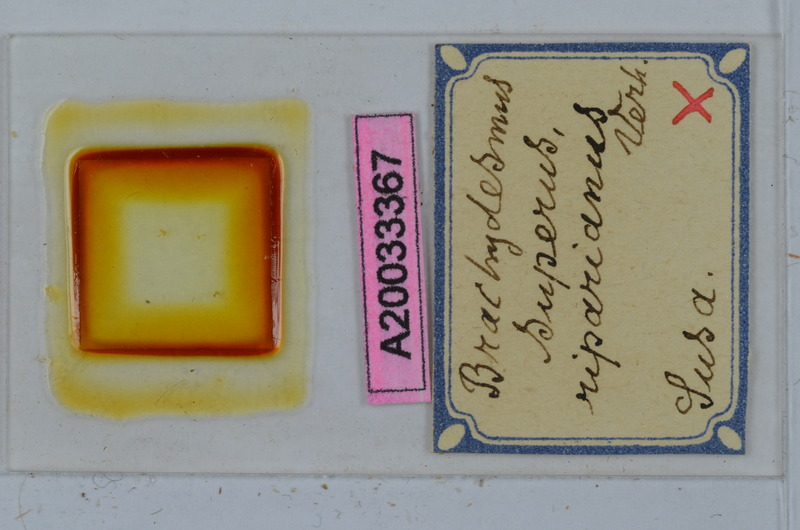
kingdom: Animalia
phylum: Arthropoda
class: Diplopoda
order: Polydesmida
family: Polydesmidae
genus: Brachydesmus
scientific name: Brachydesmus superus
